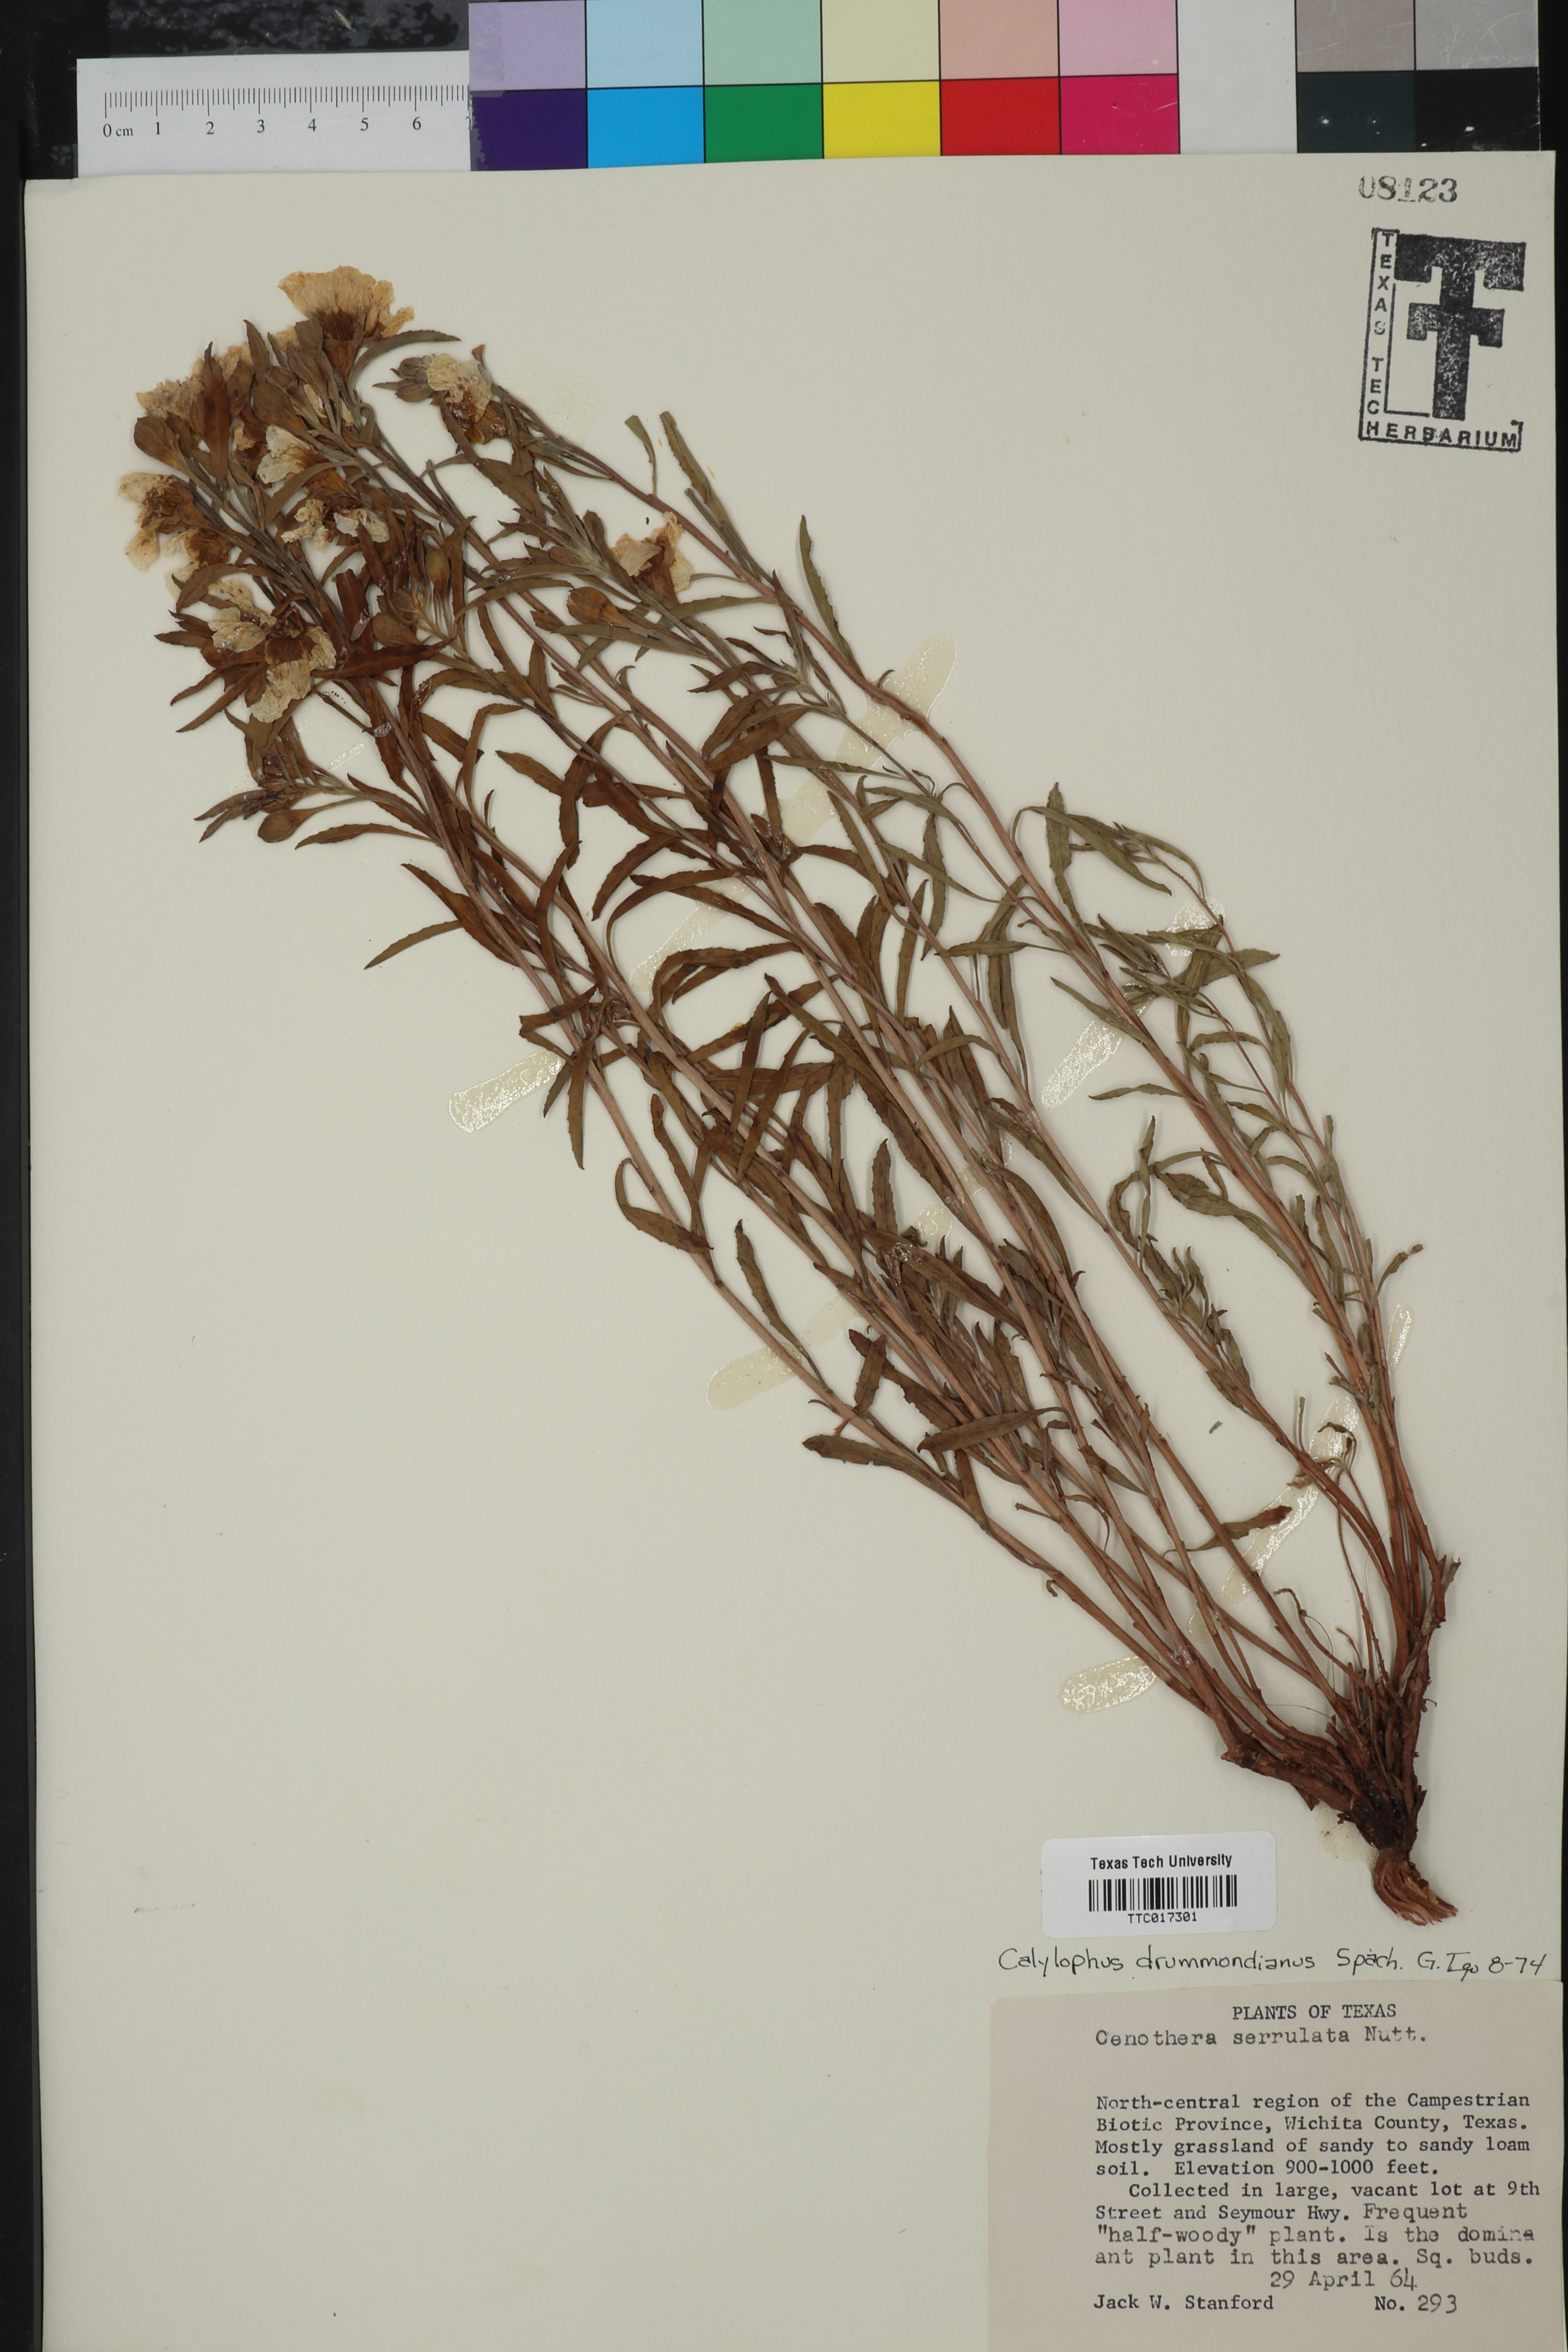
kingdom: Plantae
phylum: Tracheophyta
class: Magnoliopsida
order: Myrtales
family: Onagraceae
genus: Oenothera
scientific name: Oenothera serrulata
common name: Half-shrub calylophus
